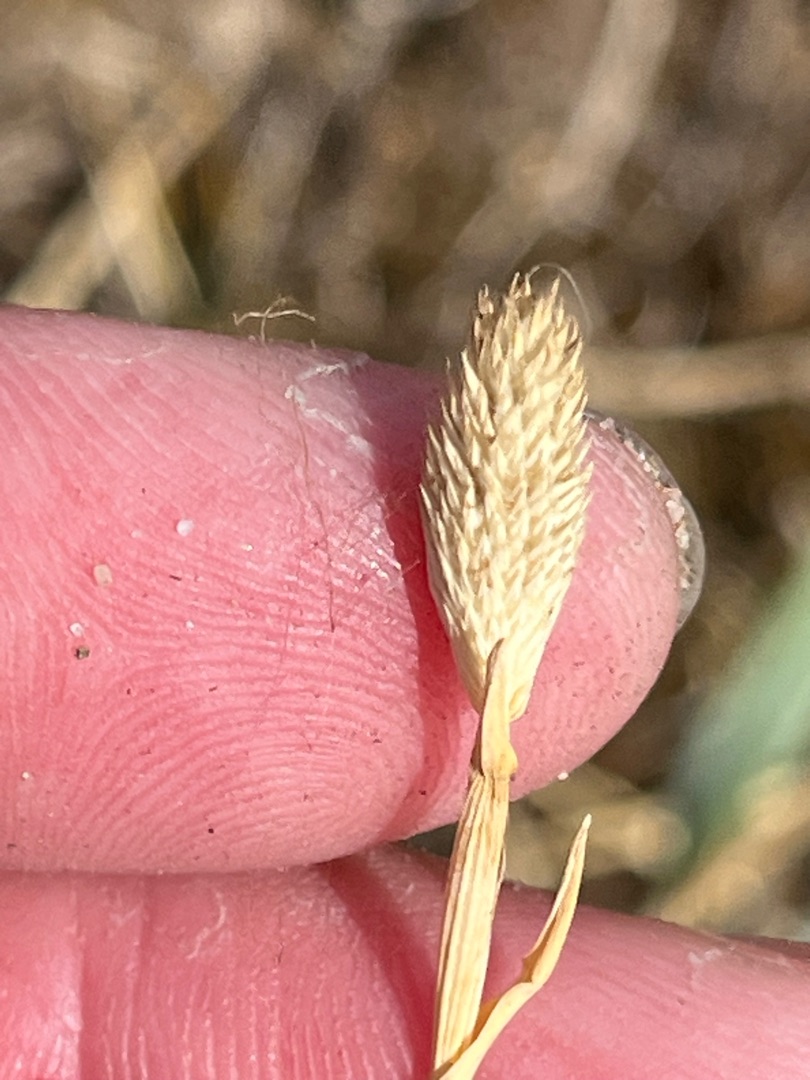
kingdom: Plantae
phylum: Tracheophyta
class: Liliopsida
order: Poales
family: Poaceae
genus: Phleum
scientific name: Phleum arenarium
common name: Sand-rottehale
